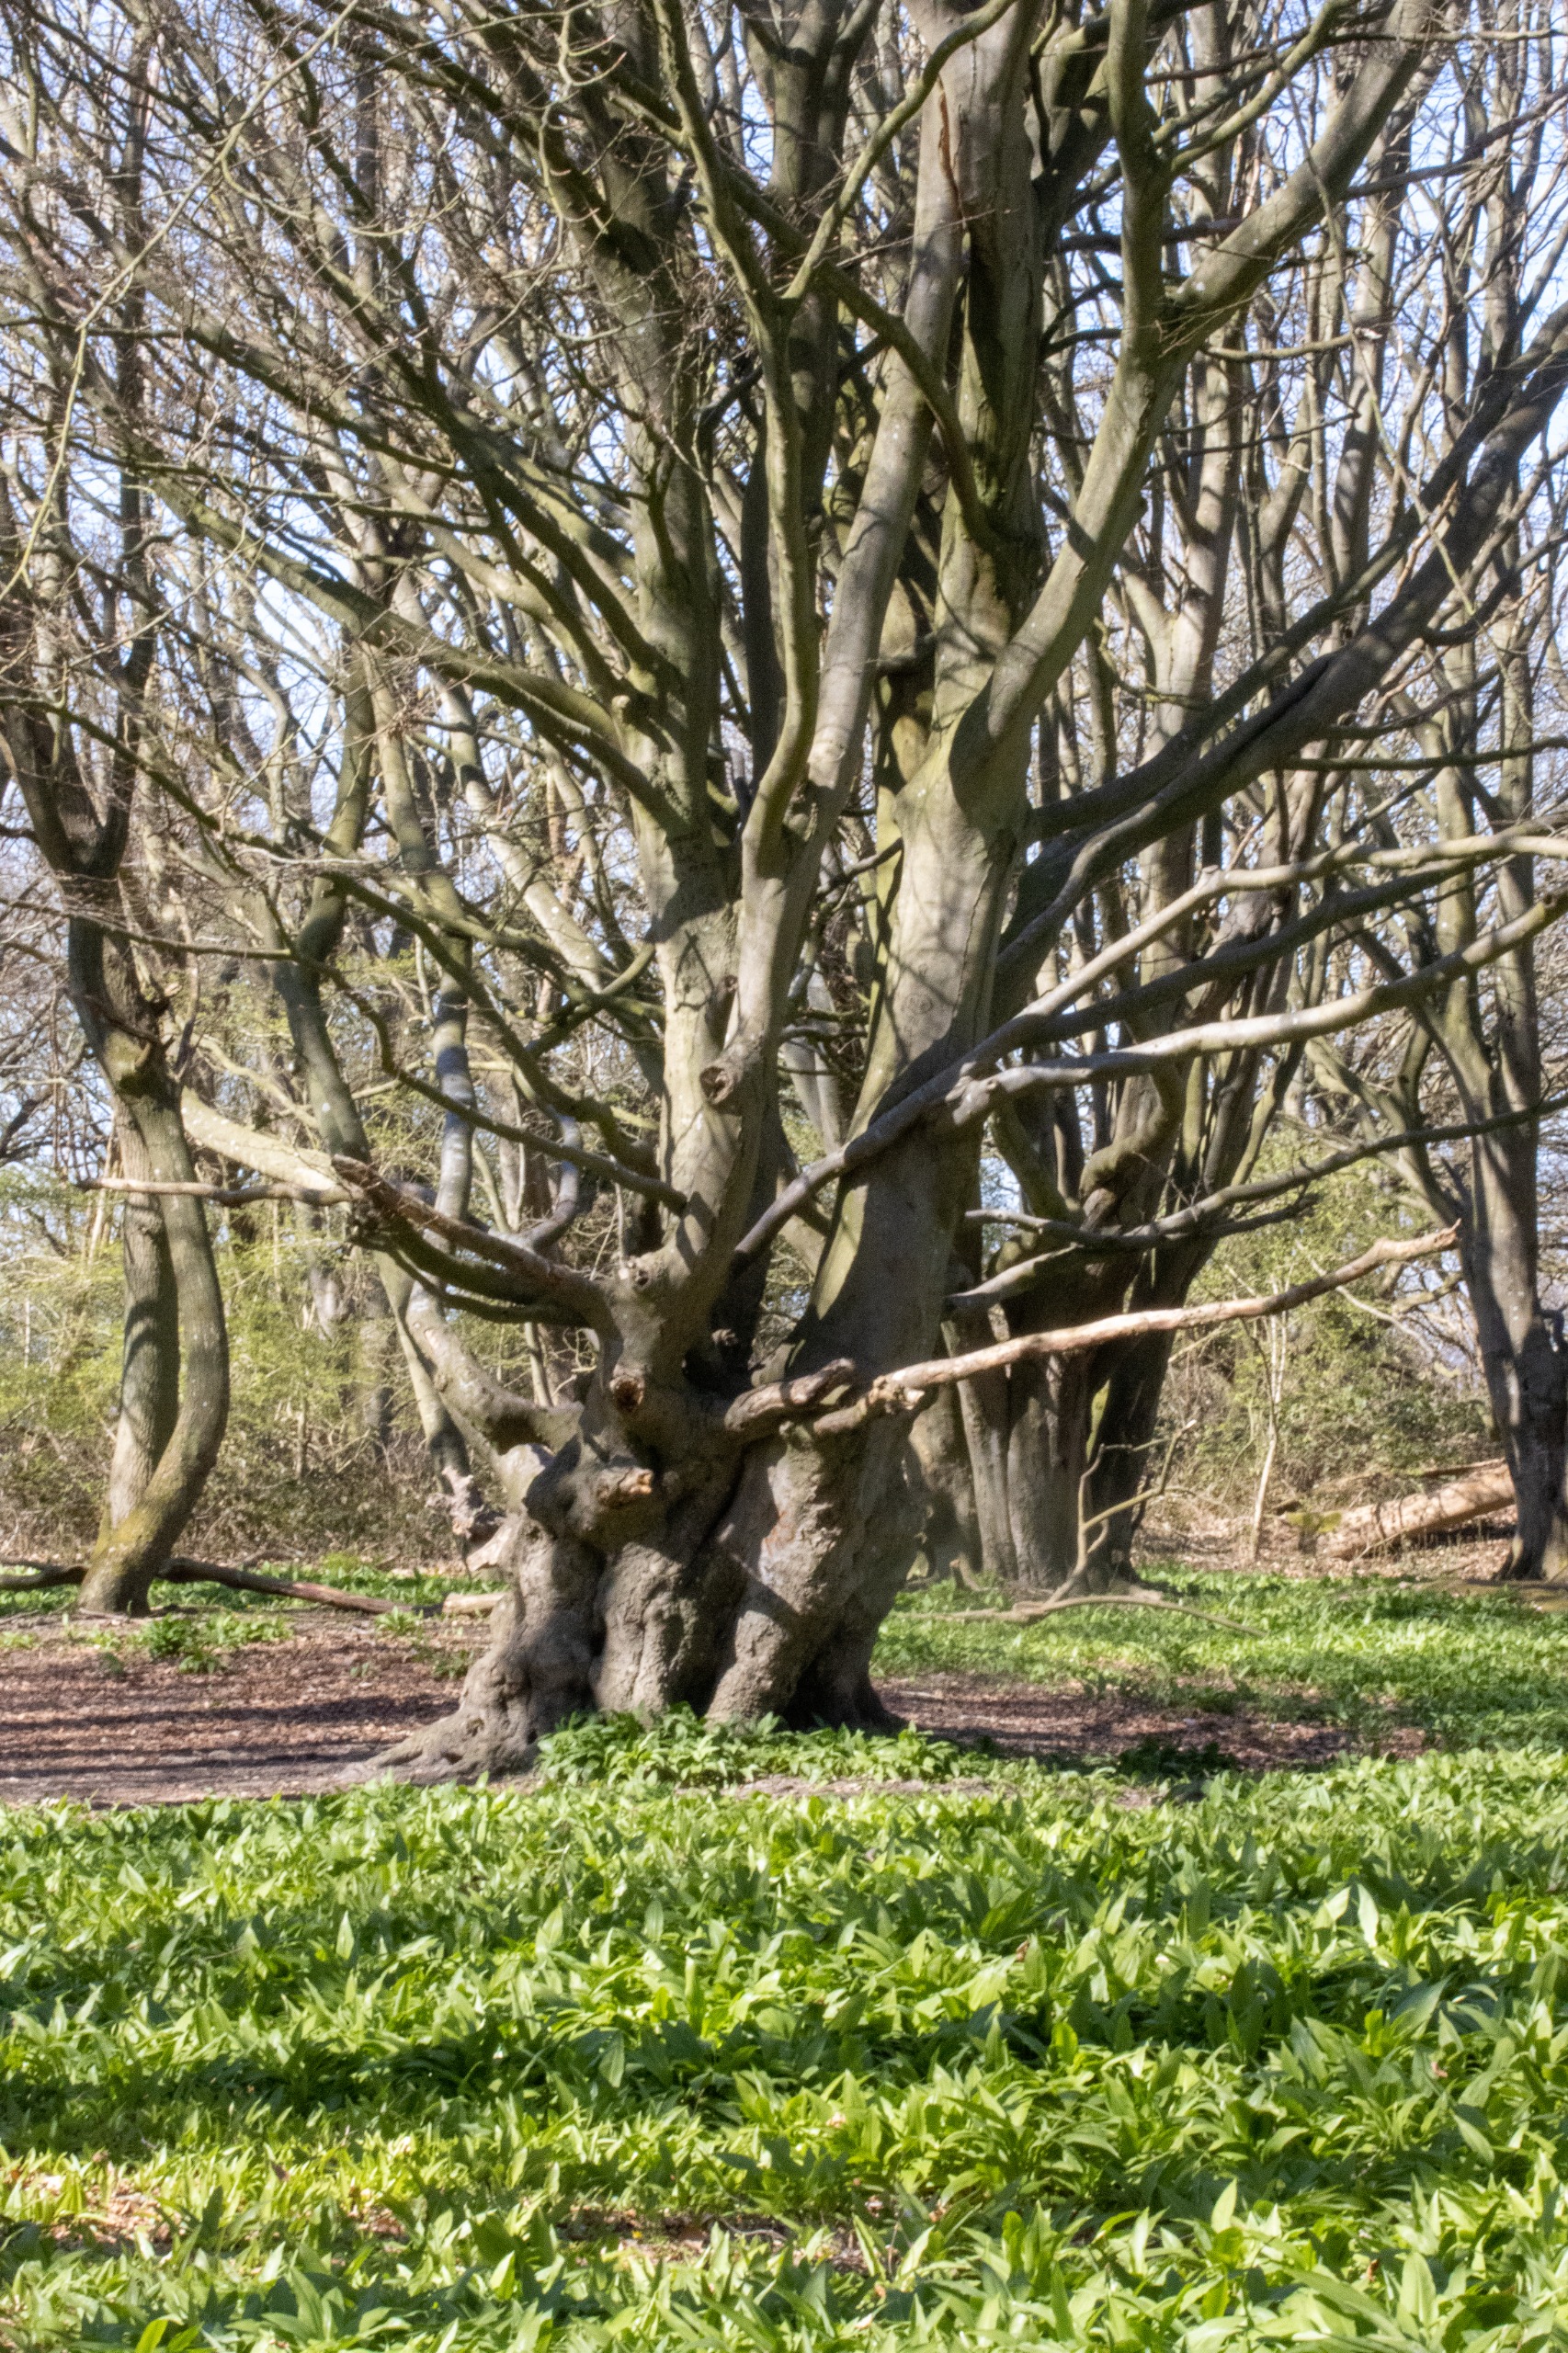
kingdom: Plantae
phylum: Tracheophyta
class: Magnoliopsida
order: Fagales
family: Fagaceae
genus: Fagus
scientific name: Fagus sylvatica
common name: Bøg
